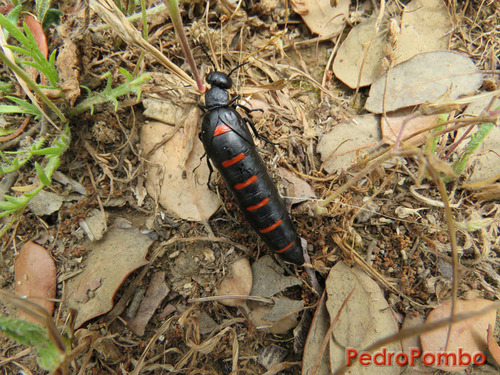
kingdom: Animalia
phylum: Arthropoda
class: Insecta
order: Coleoptera
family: Meloidae
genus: Berberomeloe
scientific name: Berberomeloe majalis
